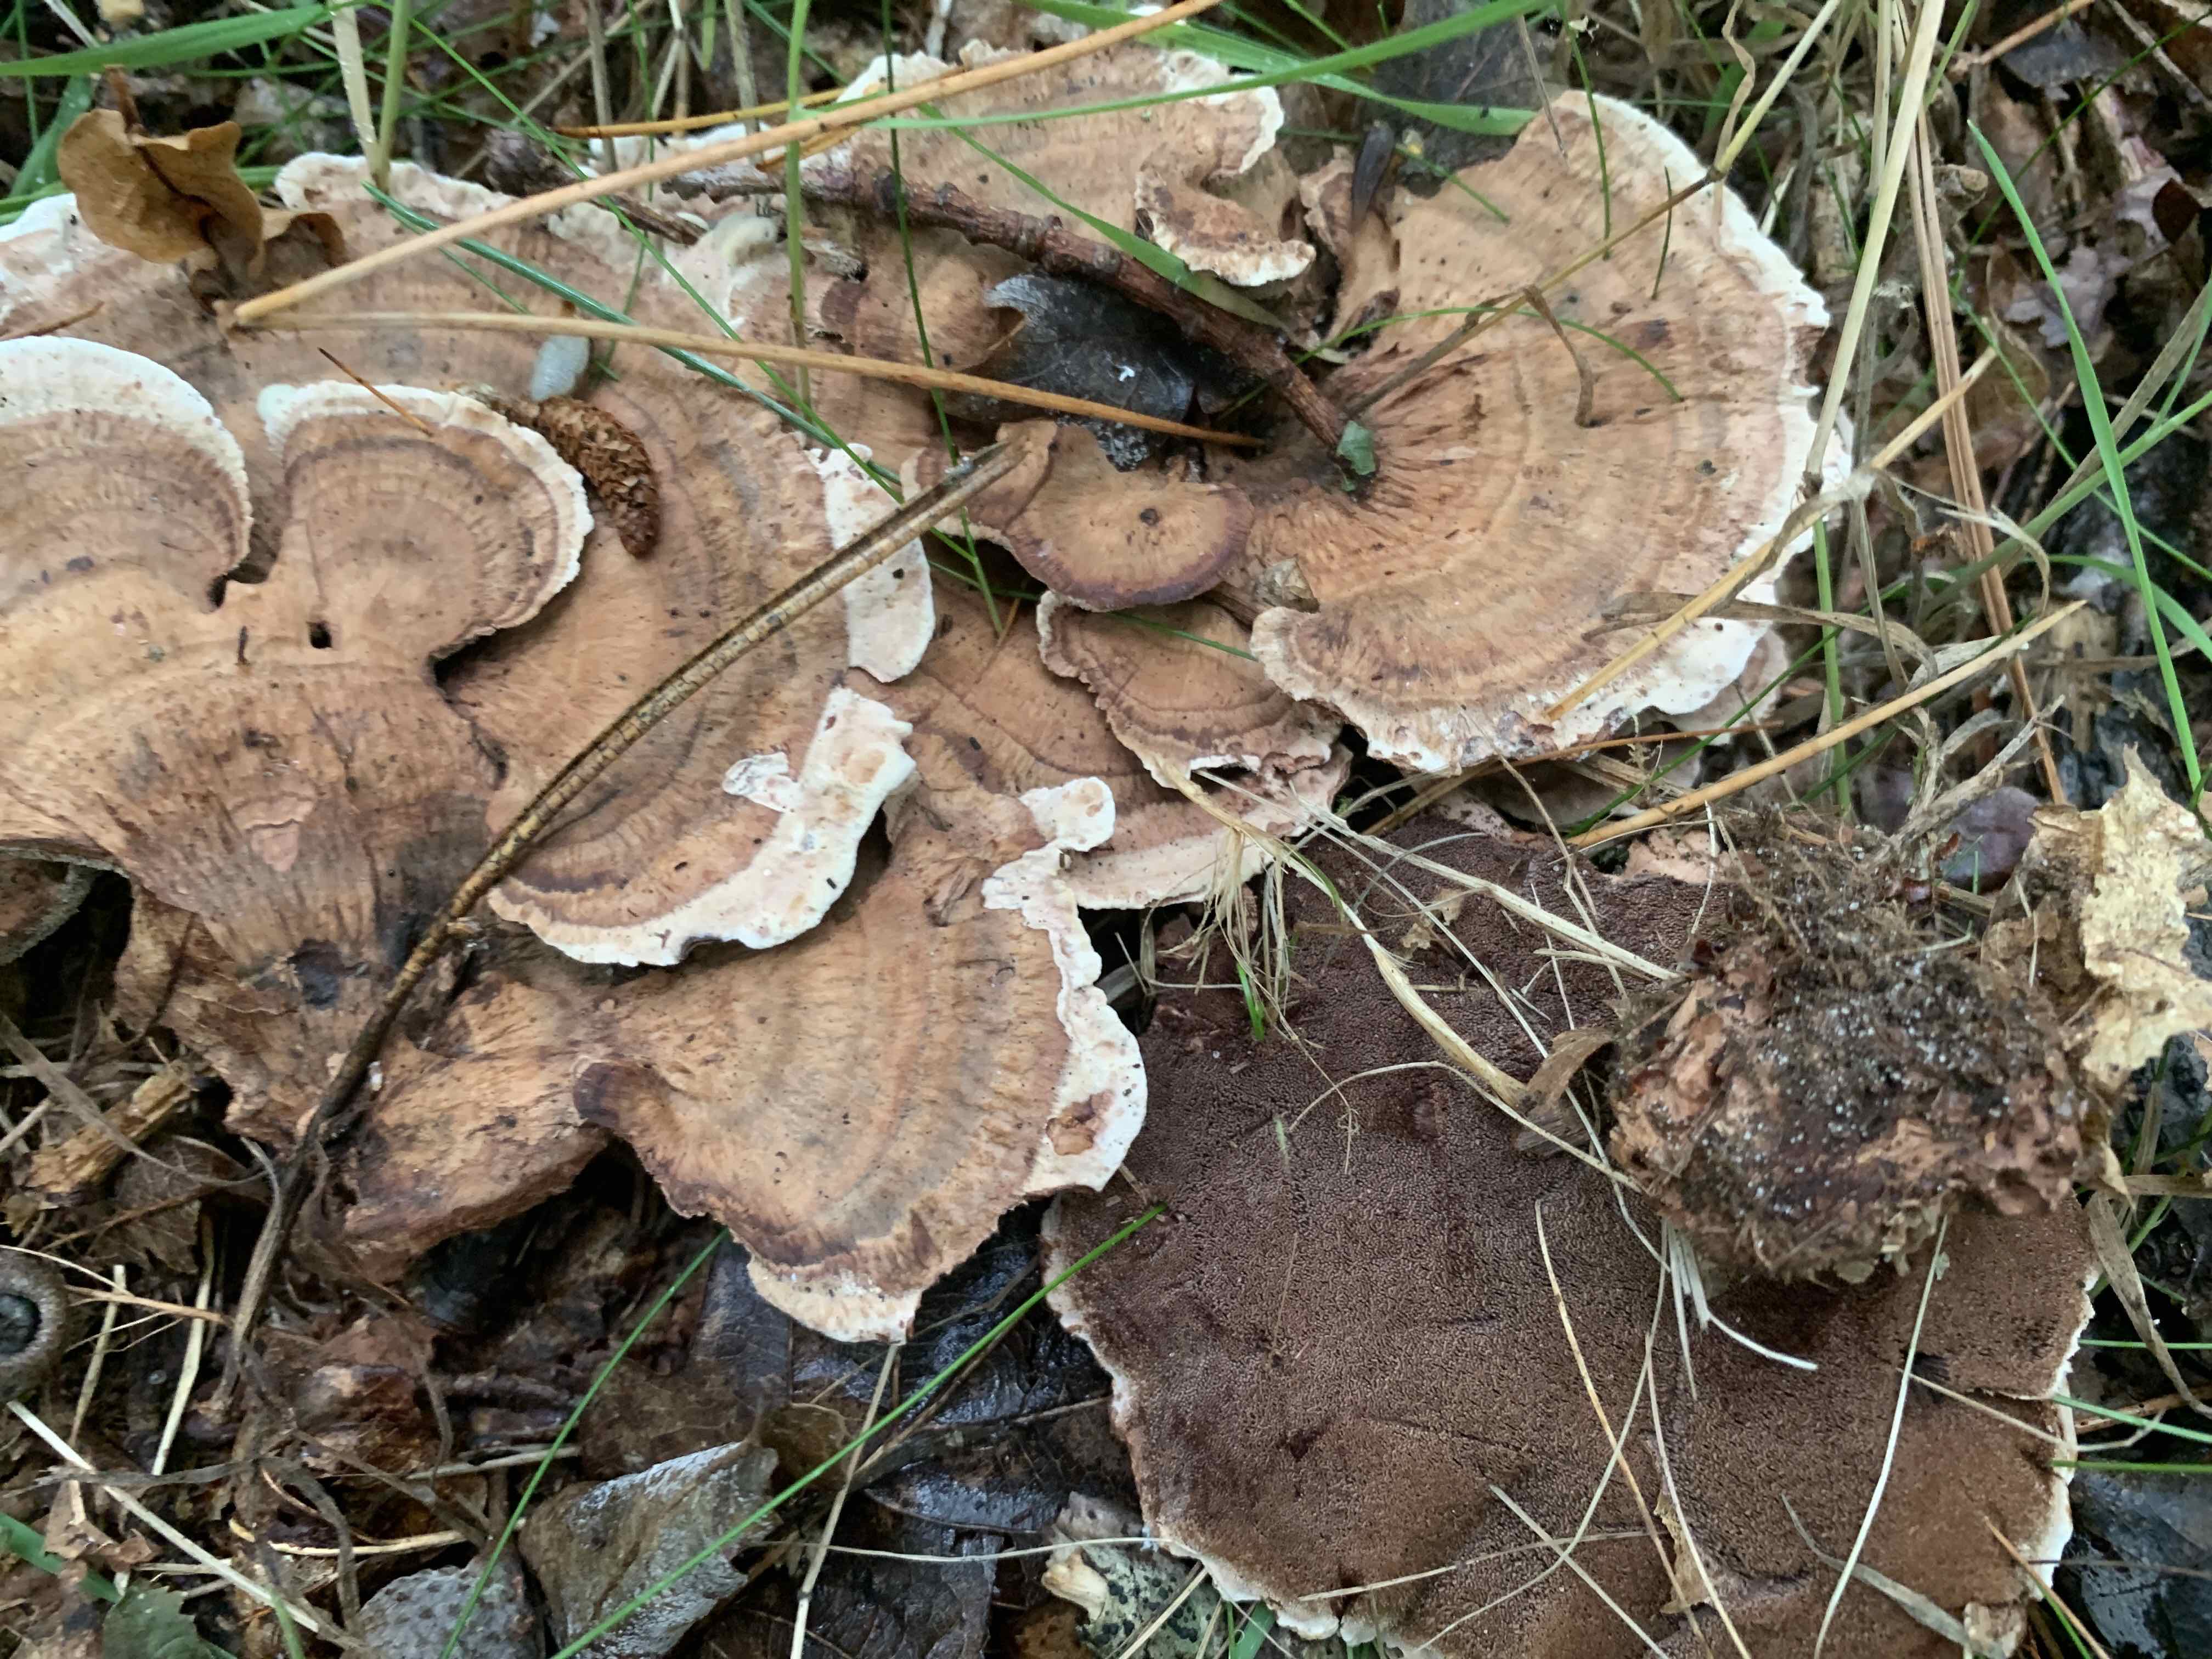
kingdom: Fungi
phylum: Basidiomycota
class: Agaricomycetes
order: Thelephorales
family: Bankeraceae
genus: Hydnellum
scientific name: Hydnellum concrescens
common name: bæltet korkpigsvamp
